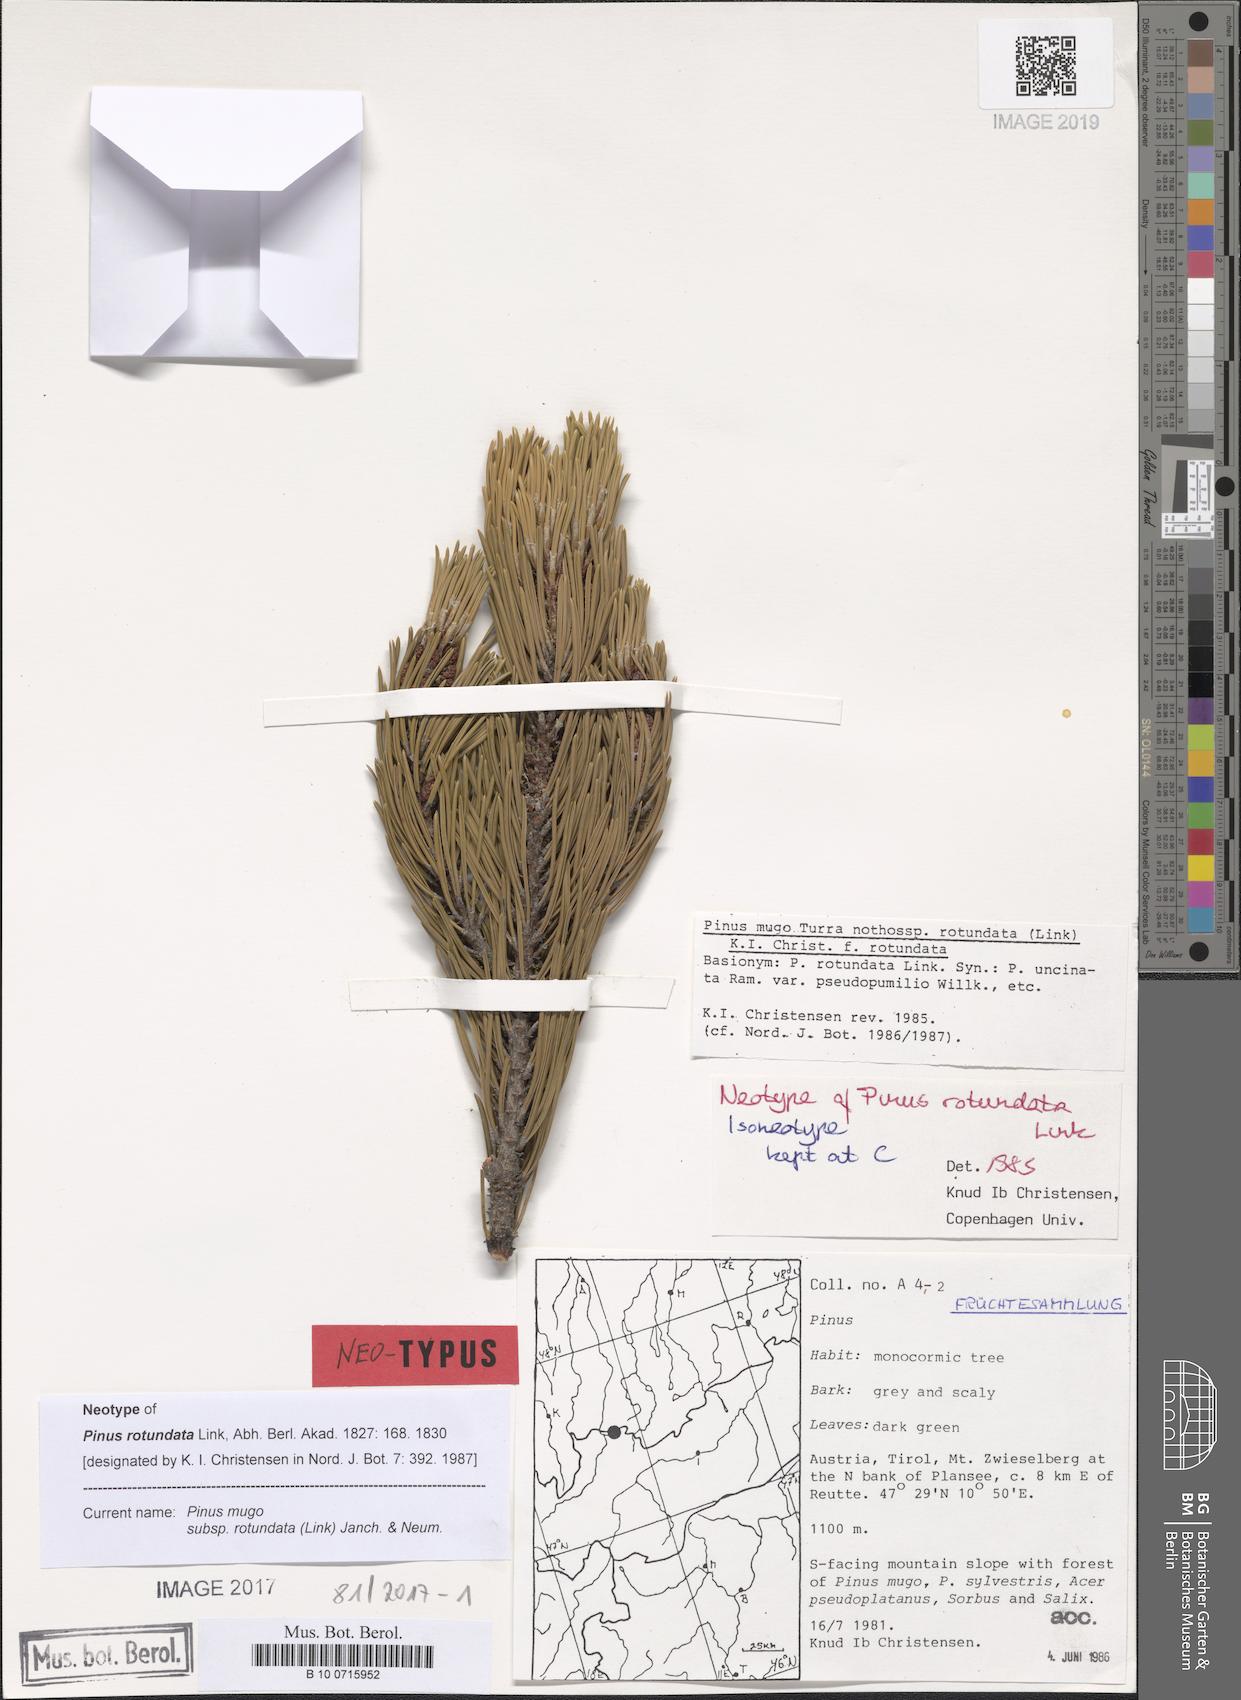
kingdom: Plantae
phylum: Tracheophyta
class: Pinopsida
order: Pinales
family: Pinaceae
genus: Pinus
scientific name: Pinus mugo
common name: Mugo pine
